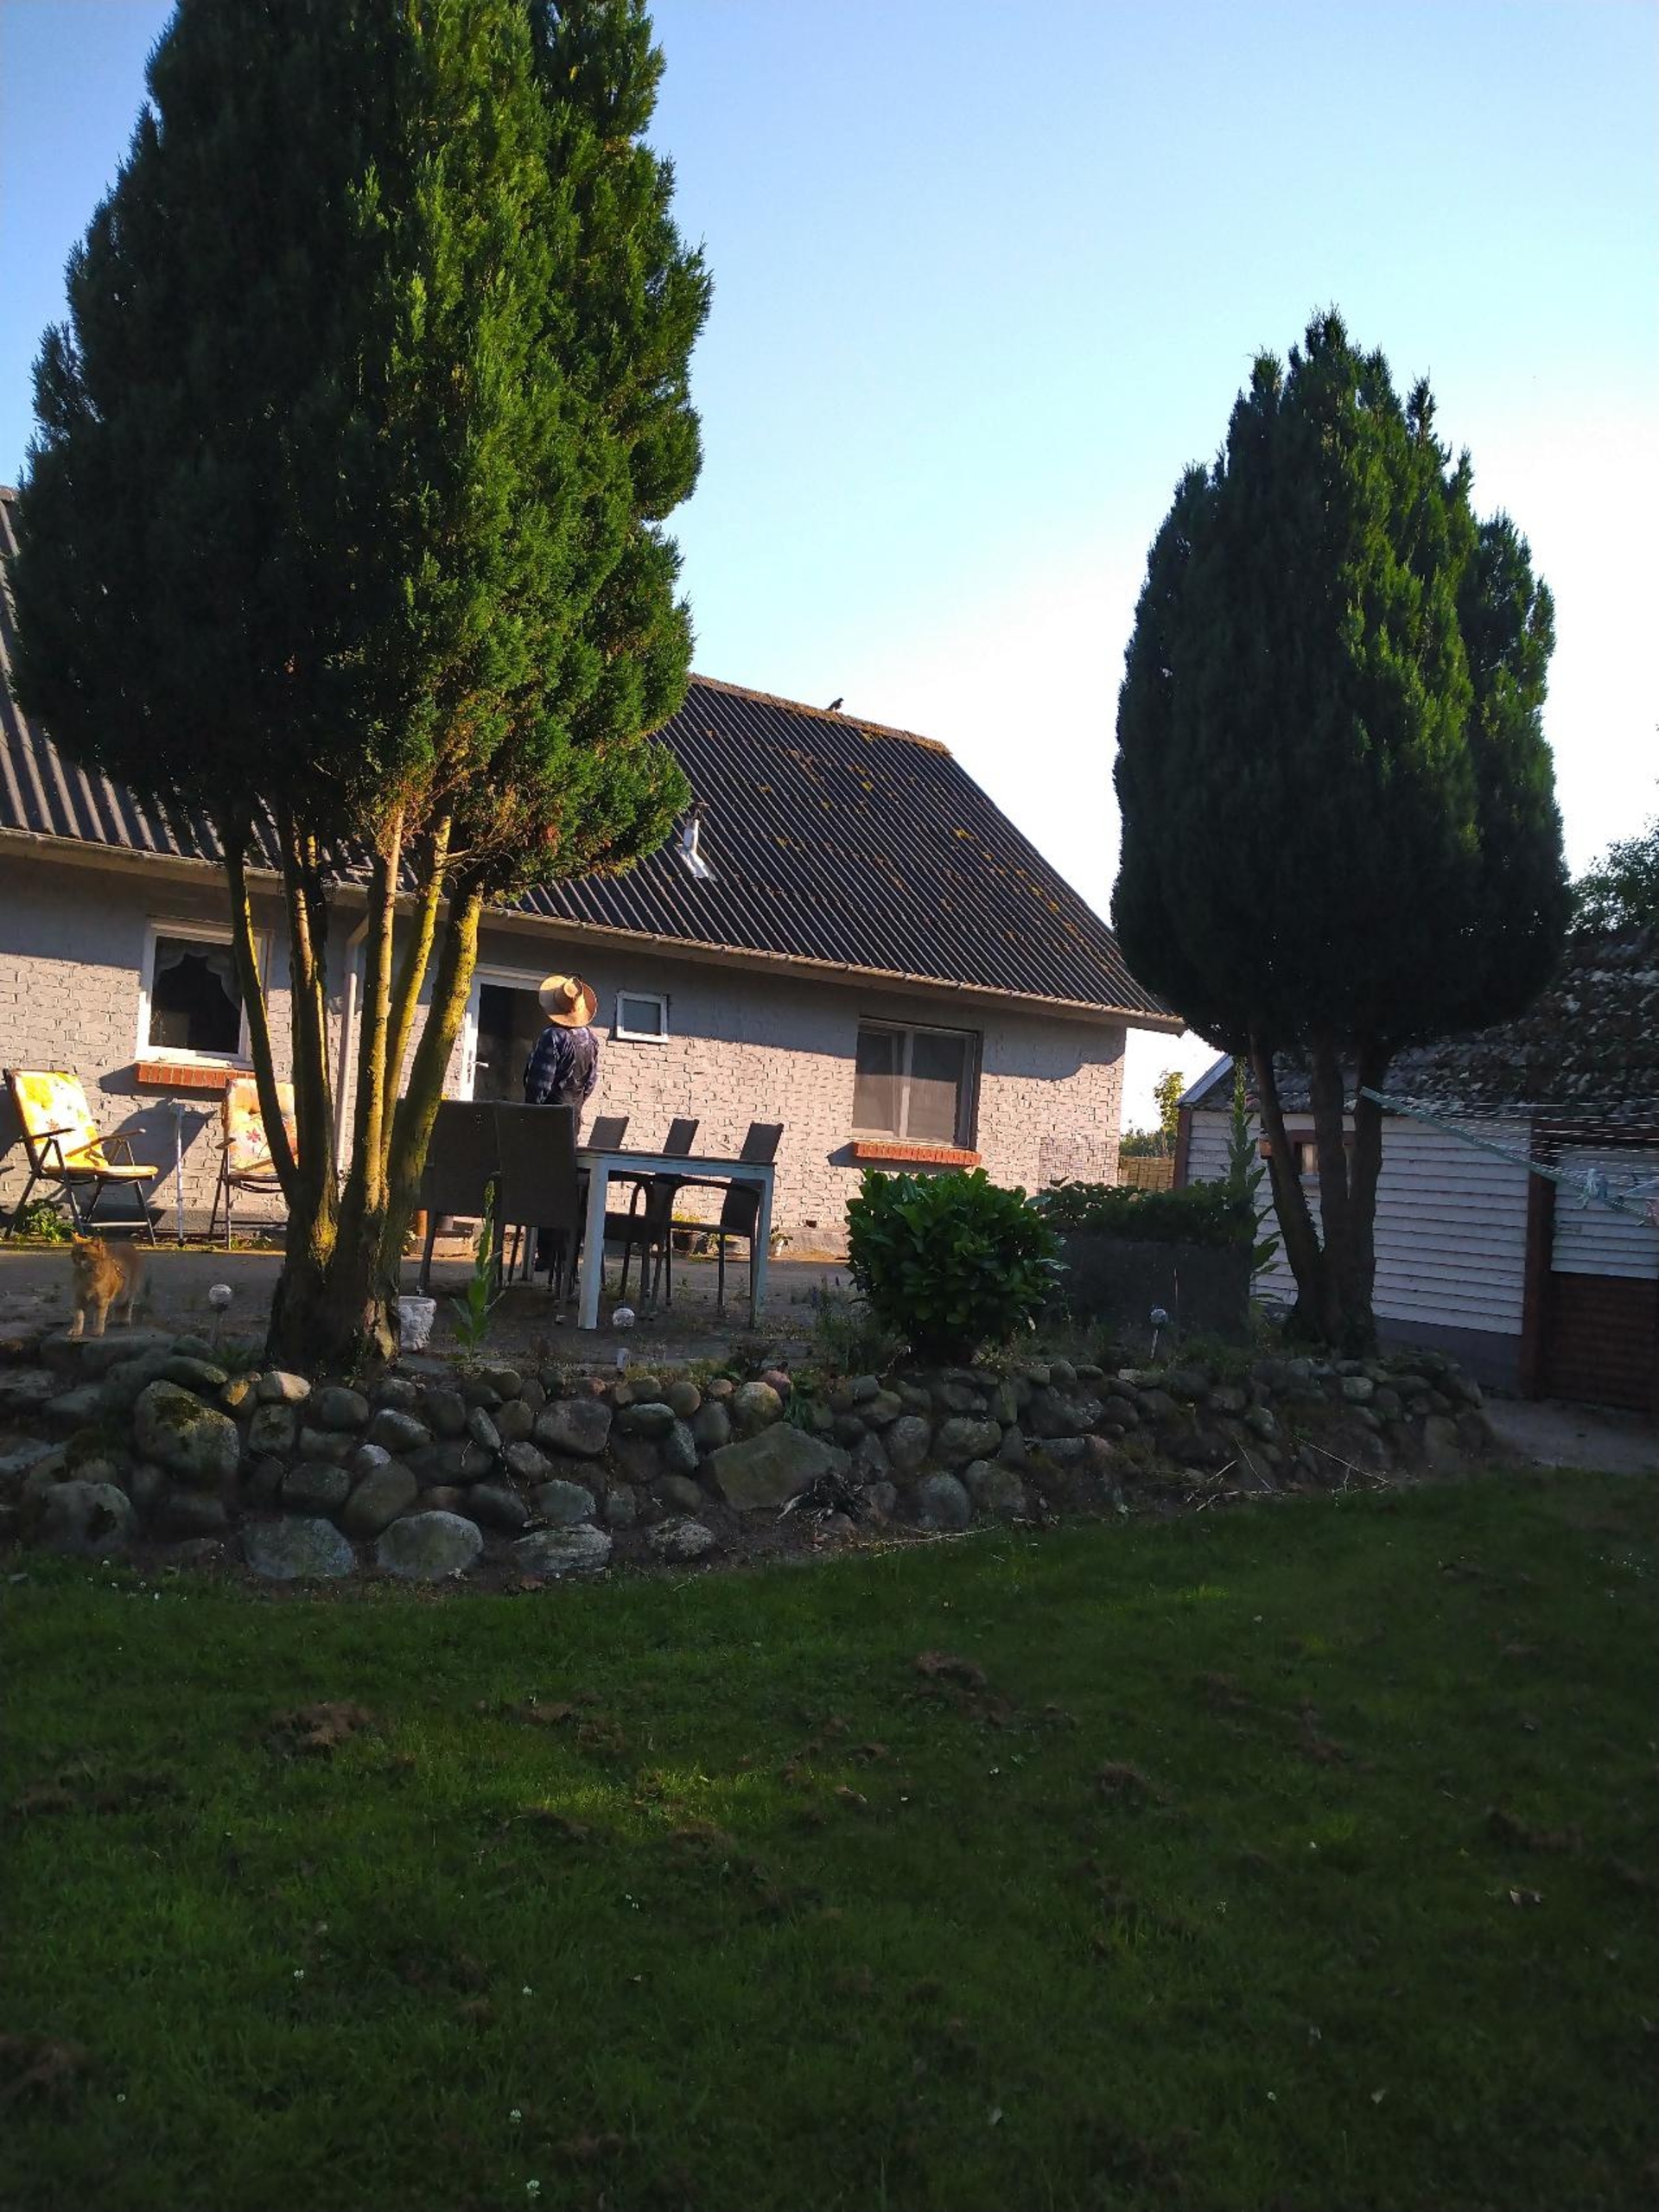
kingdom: Animalia
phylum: Chordata
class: Aves
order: Falconiformes
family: Falconidae
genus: Falco
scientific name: Falco tinnunculus
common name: Tårnfalk
